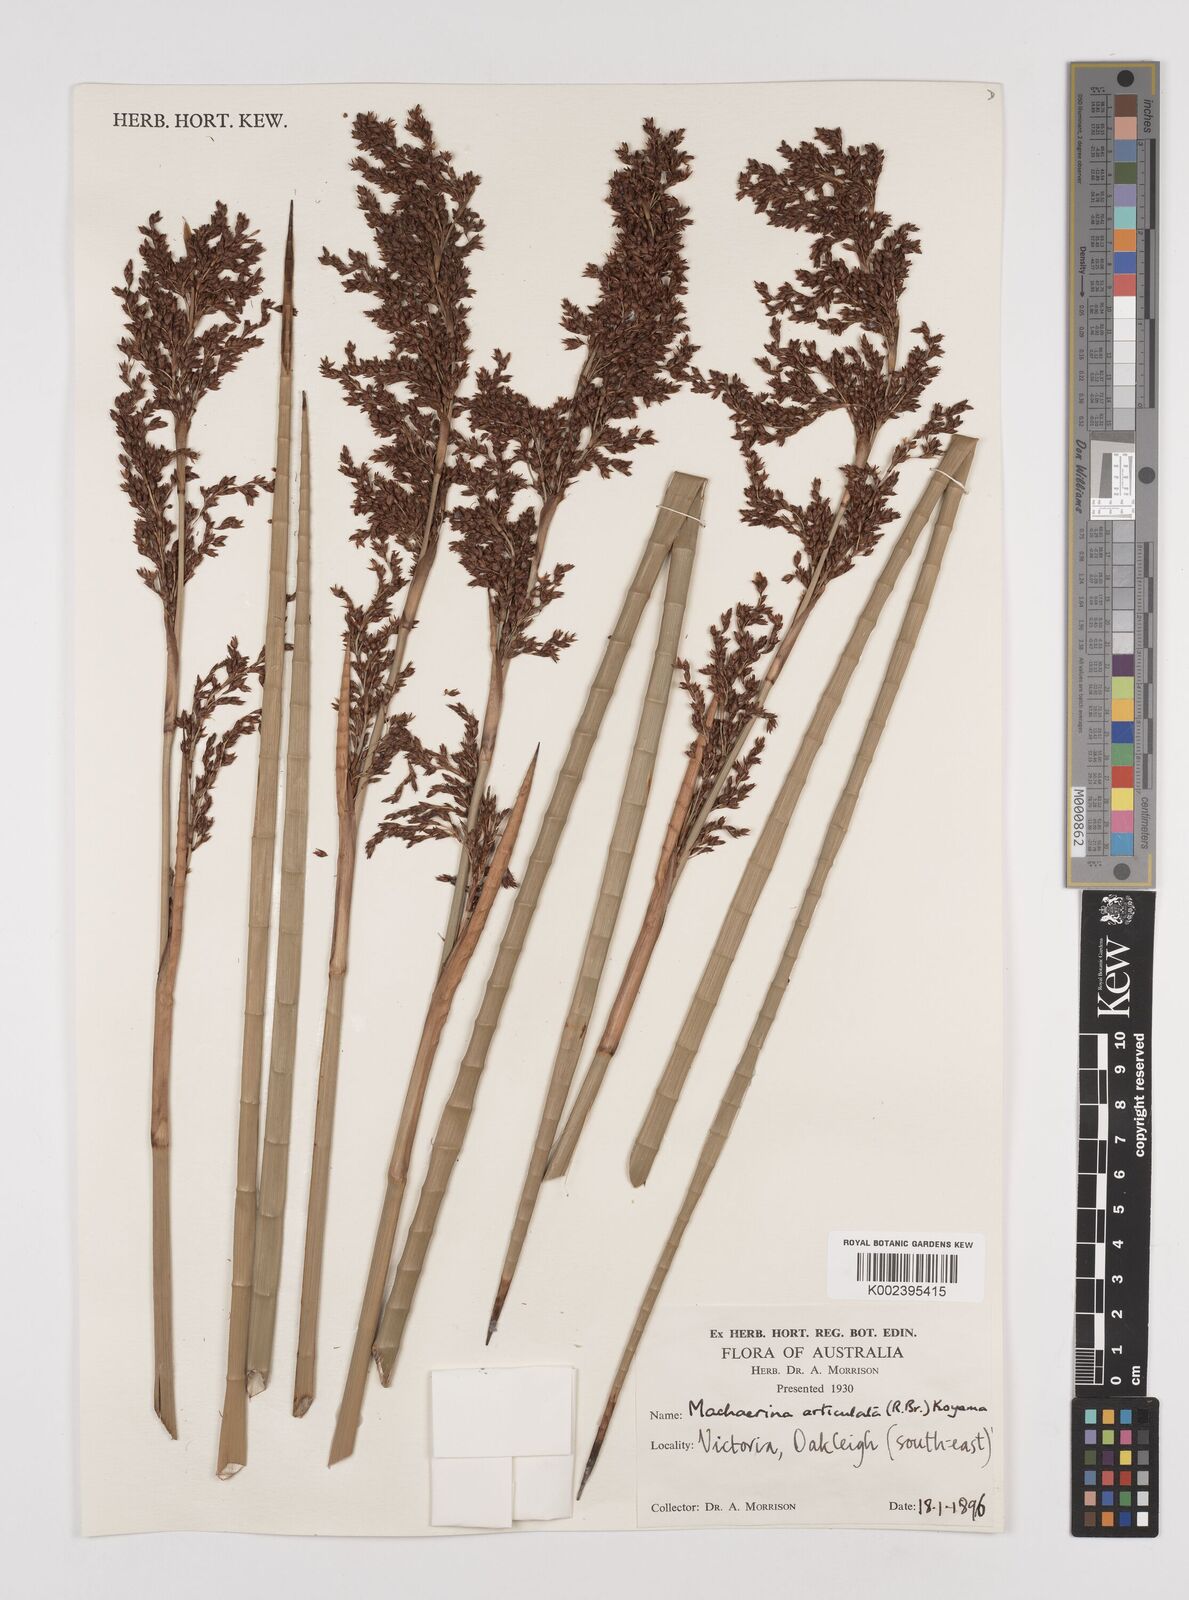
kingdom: Plantae
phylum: Tracheophyta
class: Liliopsida
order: Poales
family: Cyperaceae
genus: Machaerina
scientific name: Machaerina articulata
